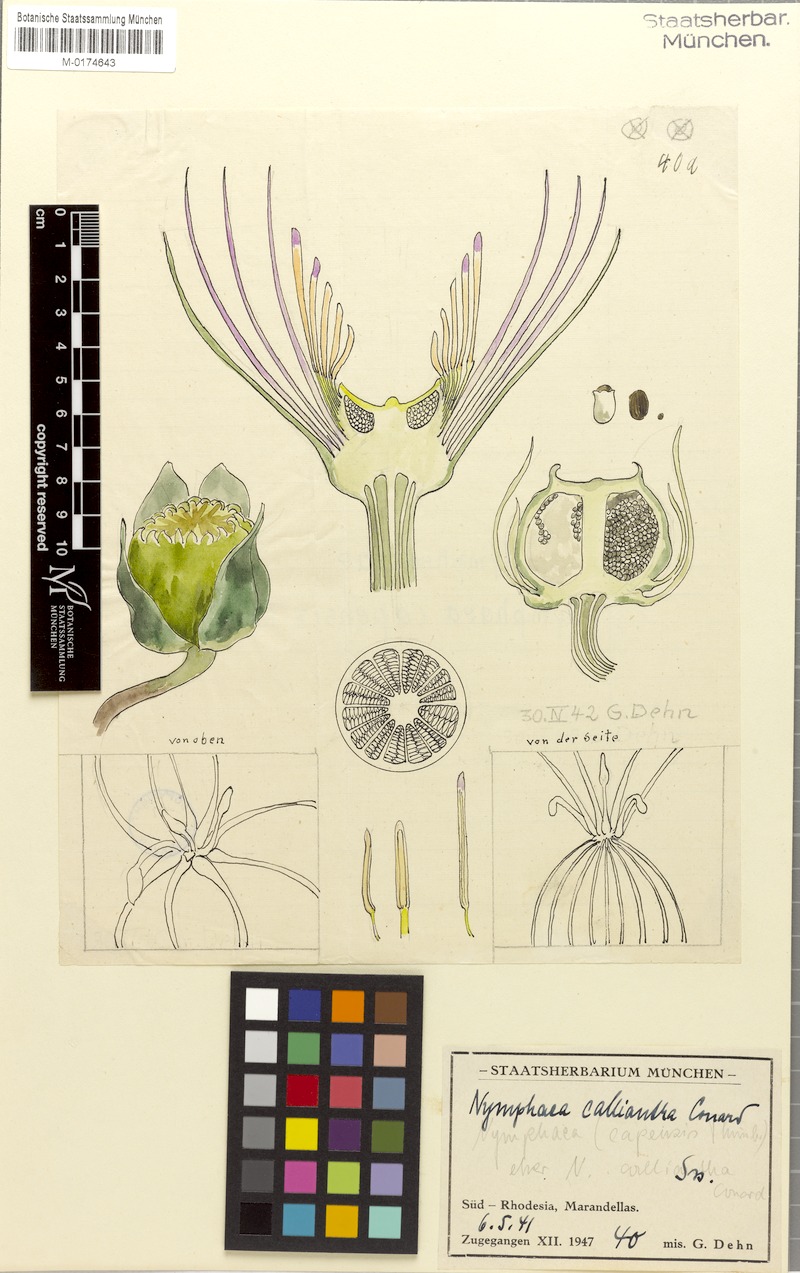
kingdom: Plantae
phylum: Tracheophyta
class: Magnoliopsida
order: Nymphaeales
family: Nymphaeaceae
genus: Nymphaea
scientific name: Nymphaea nouchali
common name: Blue lotus
